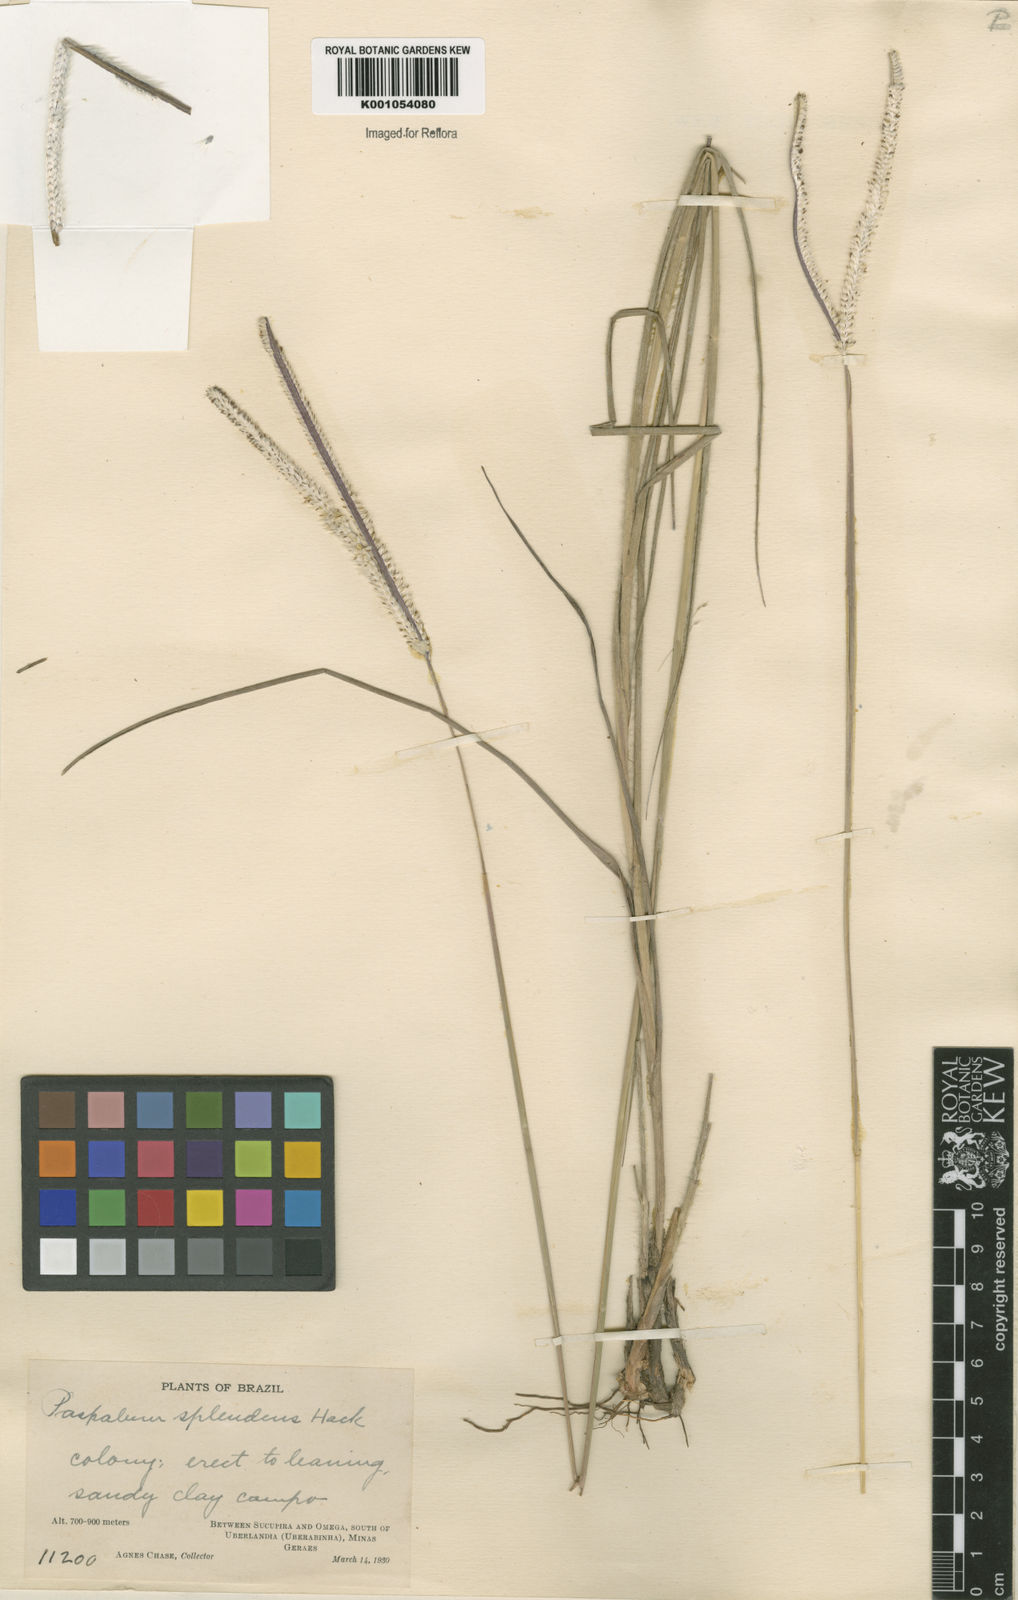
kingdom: Plantae
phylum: Tracheophyta
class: Liliopsida
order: Poales
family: Poaceae
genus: Paspalum
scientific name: Paspalum eucomum
